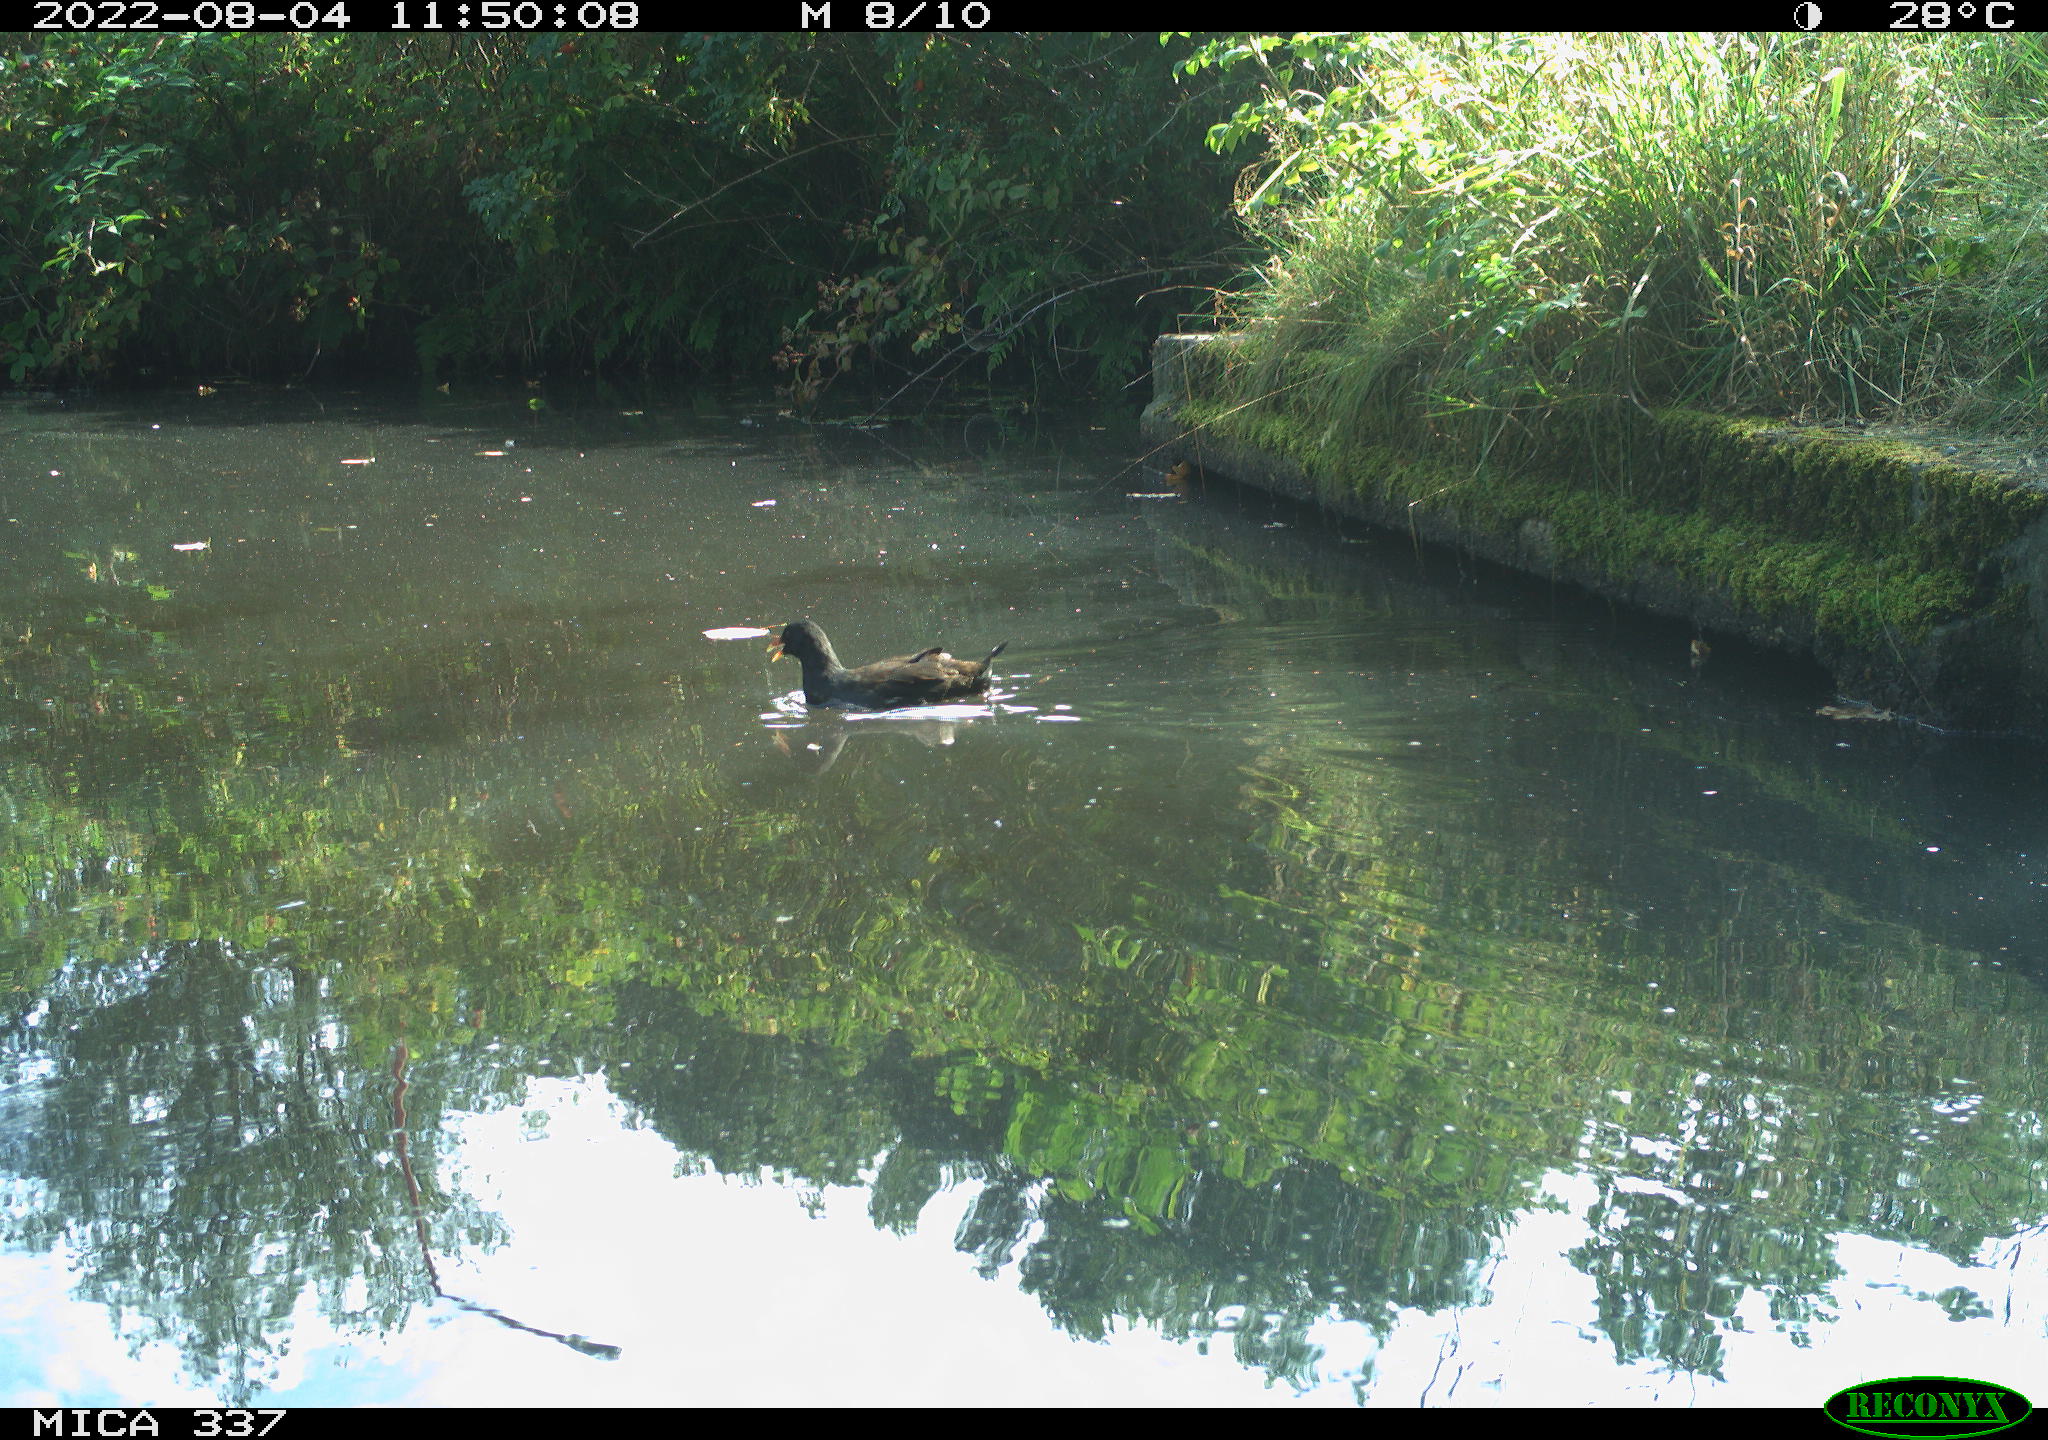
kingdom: Animalia
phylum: Chordata
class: Aves
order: Gruiformes
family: Rallidae
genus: Gallinula
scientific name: Gallinula chloropus
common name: Common moorhen
